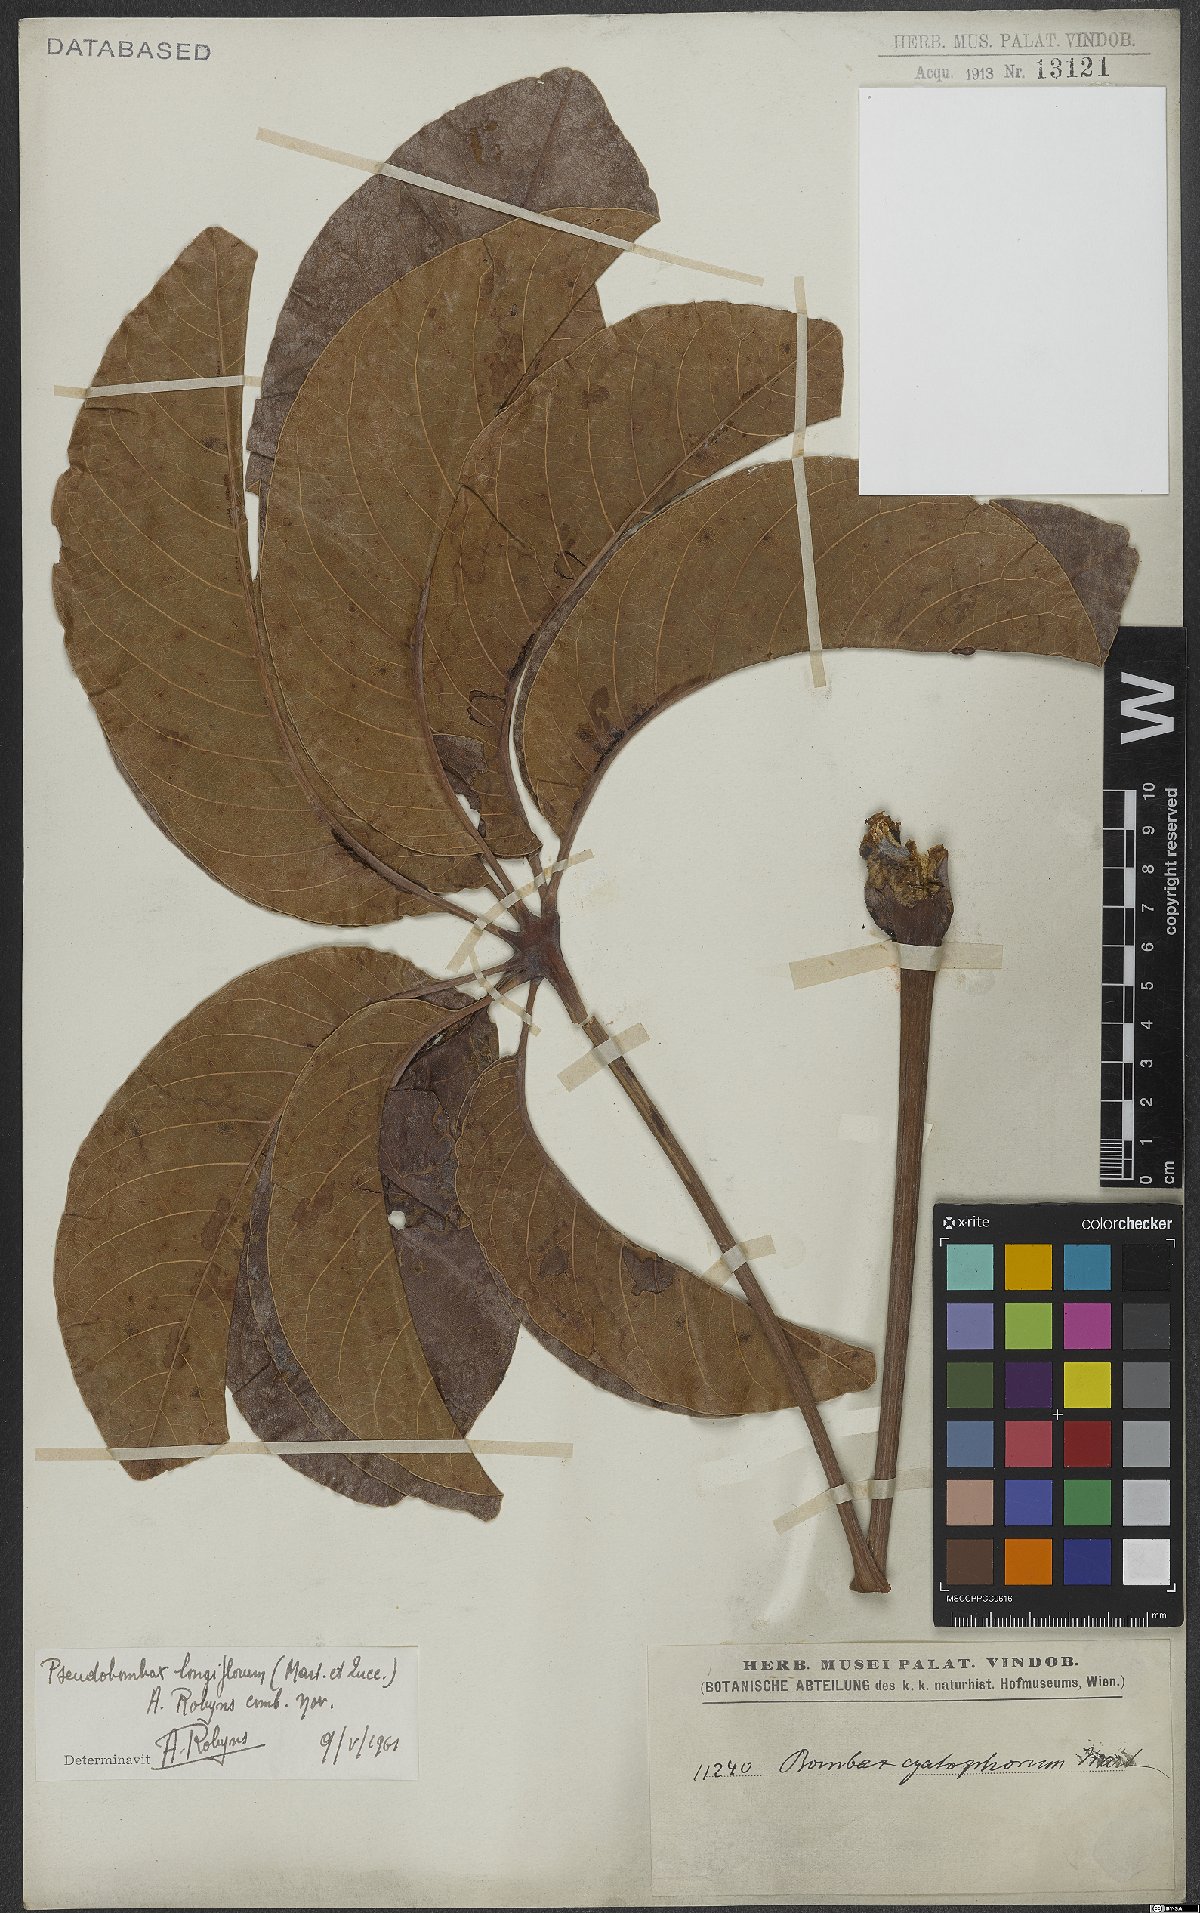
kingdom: Plantae
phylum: Tracheophyta
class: Magnoliopsida
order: Malvales
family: Malvaceae
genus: Pseudobombax
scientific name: Pseudobombax longiflorum
